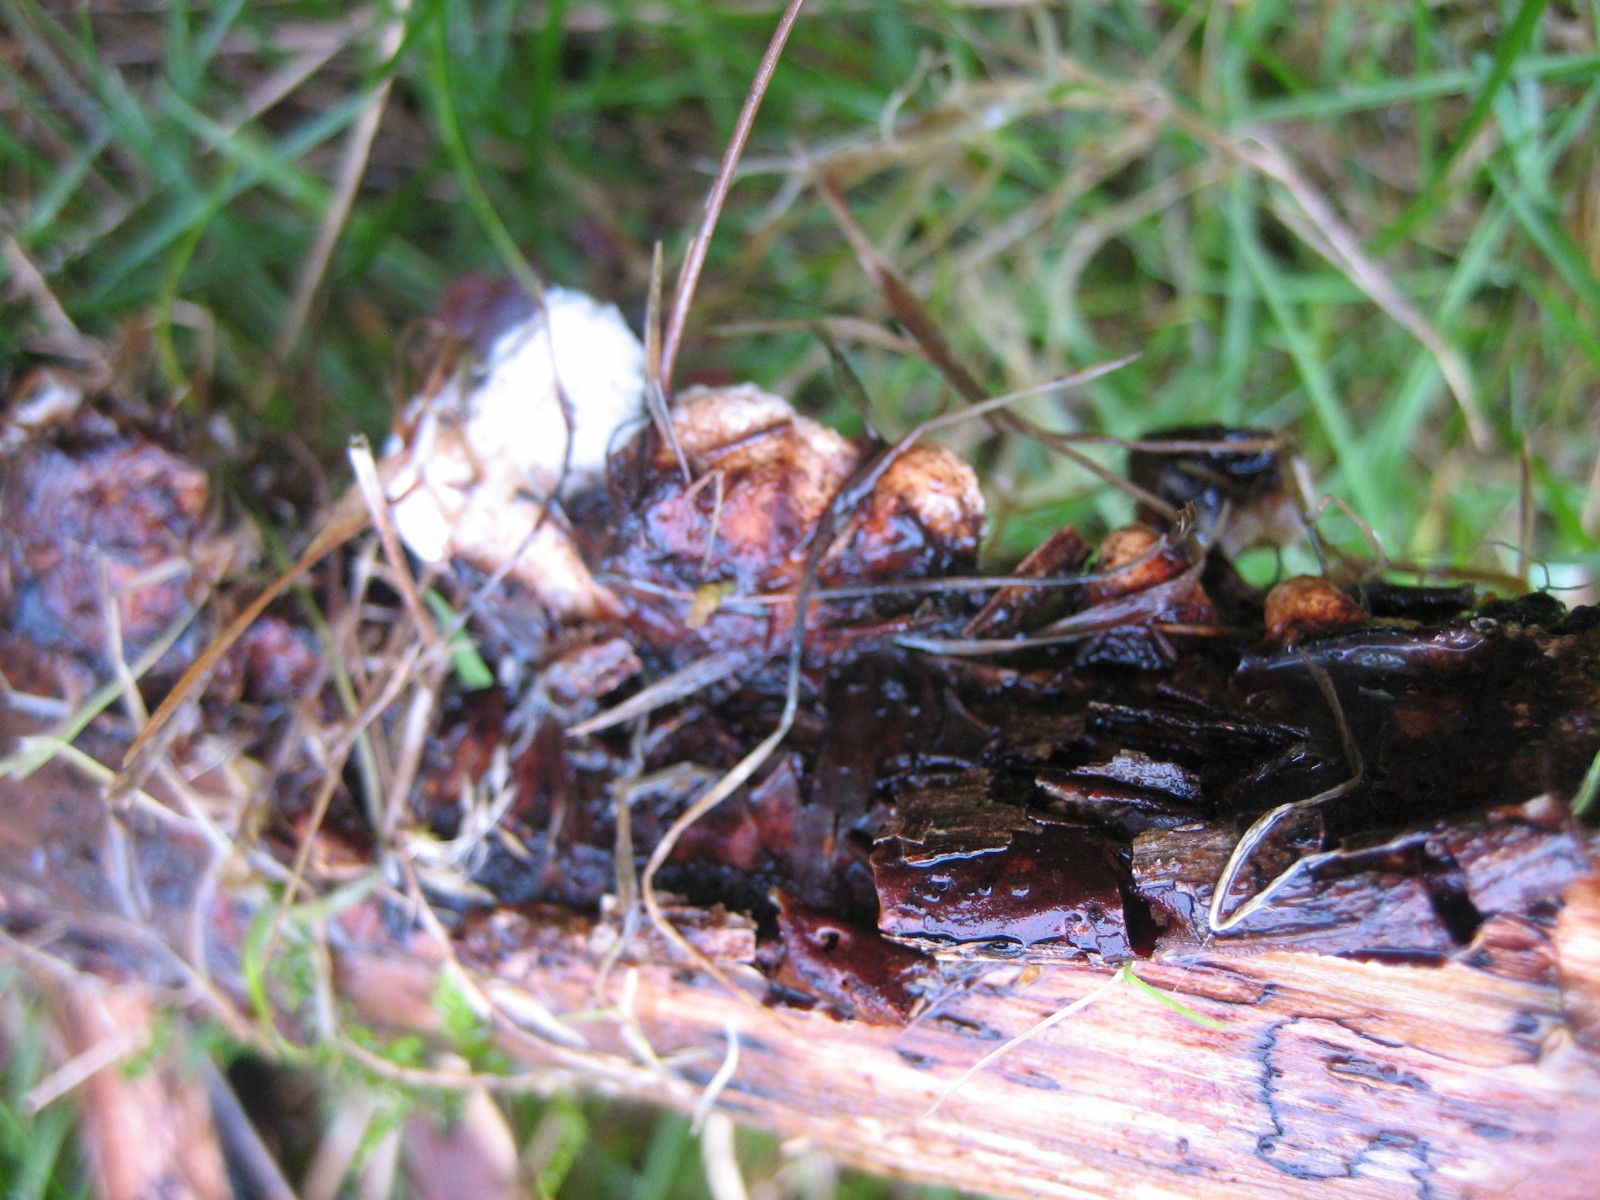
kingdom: Fungi
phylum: Basidiomycota
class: Agaricomycetes
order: Polyporales
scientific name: Polyporales
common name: poresvampordenen
